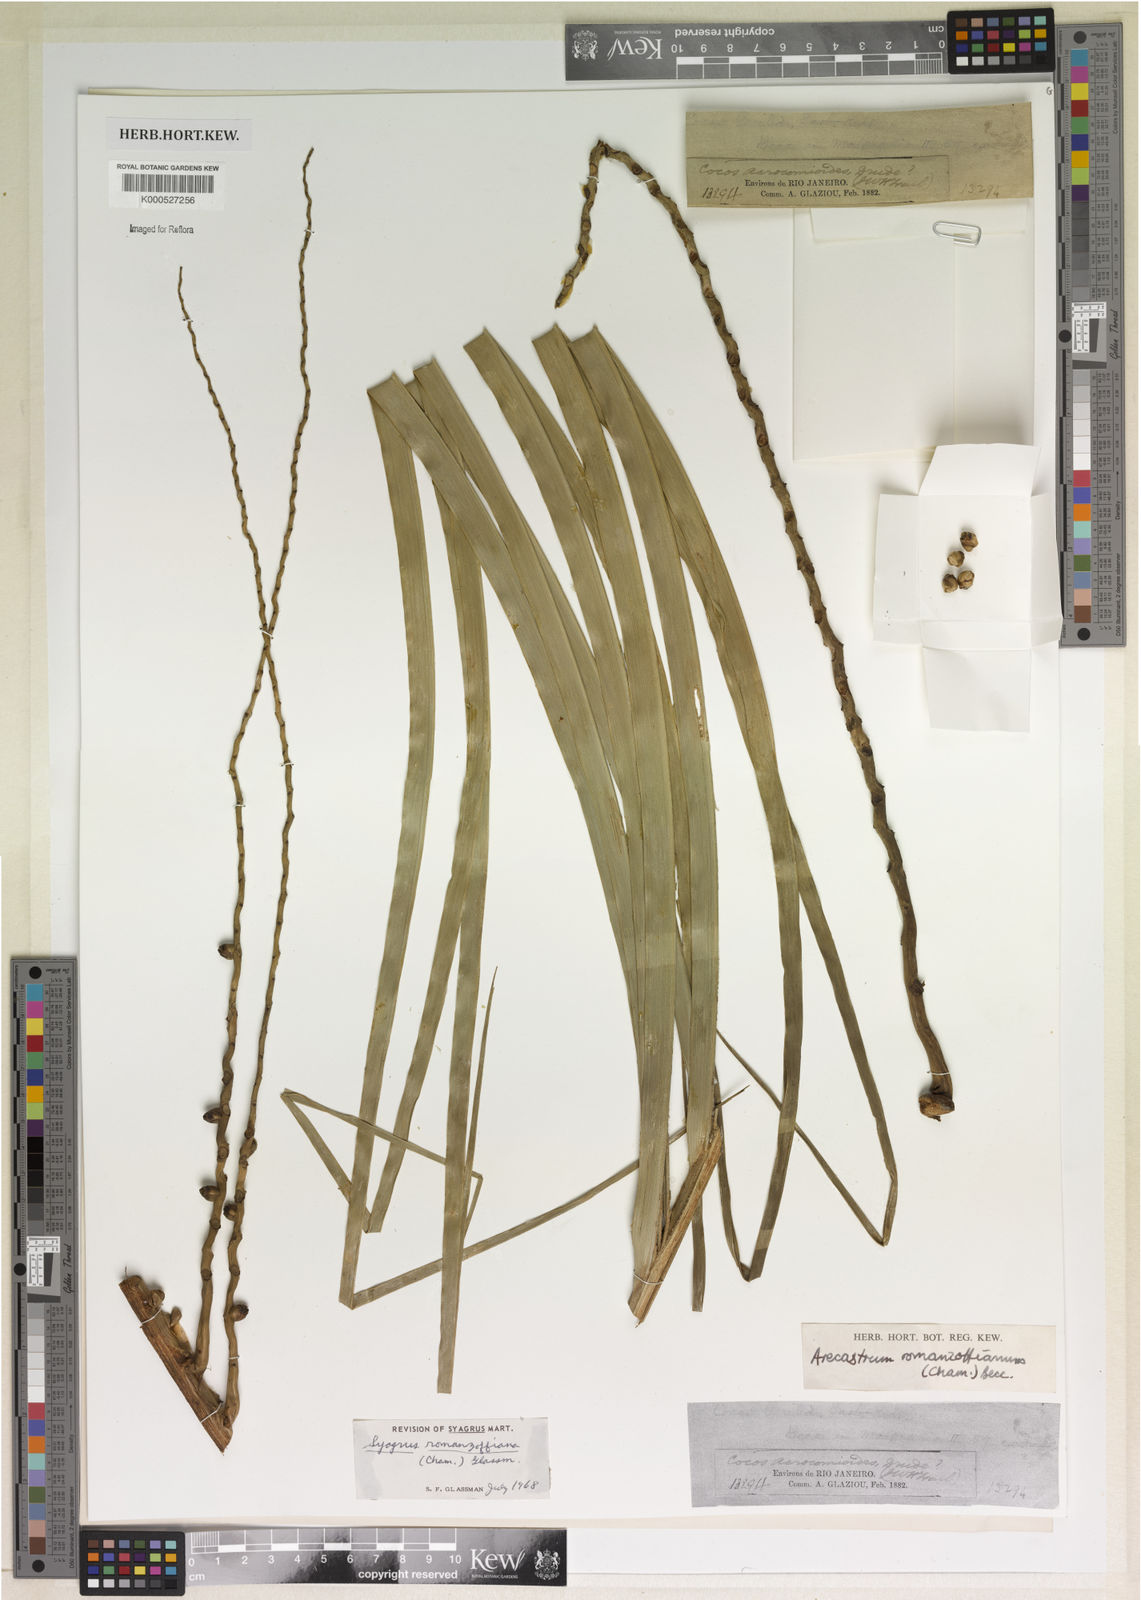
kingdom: Plantae
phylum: Tracheophyta
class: Liliopsida
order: Arecales
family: Arecaceae
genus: Syagrus
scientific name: Syagrus romanzoffiana
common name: Queen palm
